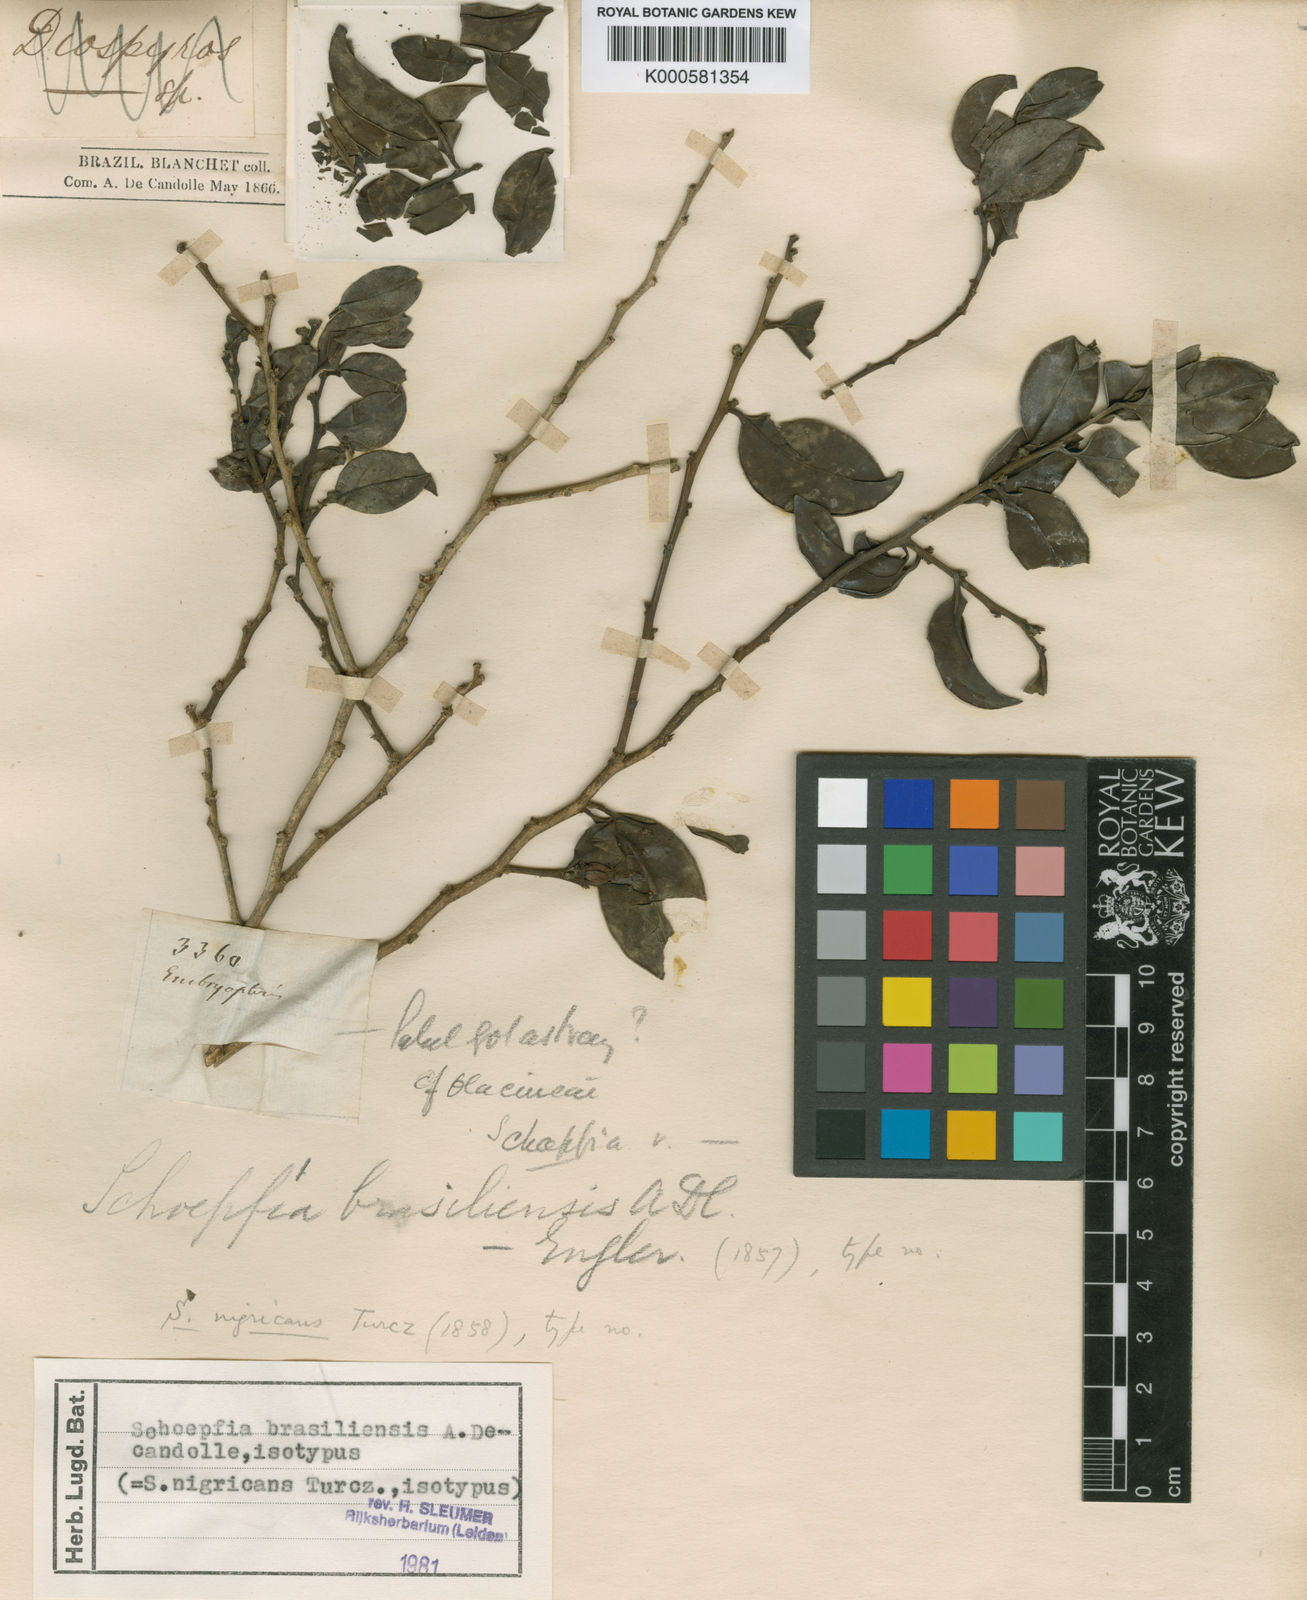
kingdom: Plantae
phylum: Tracheophyta
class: Magnoliopsida
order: Santalales
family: Schoepfiaceae
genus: Schoepfia
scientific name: Schoepfia brasiliensis
